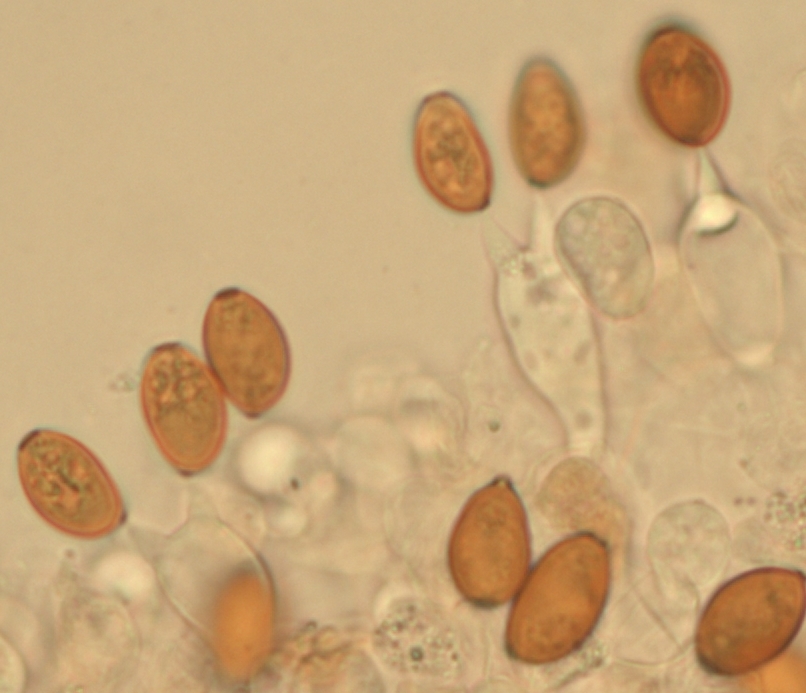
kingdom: Fungi
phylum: Basidiomycota
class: Agaricomycetes
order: Agaricales
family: Bolbitiaceae
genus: Conocybe
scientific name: Conocybe siliginea
